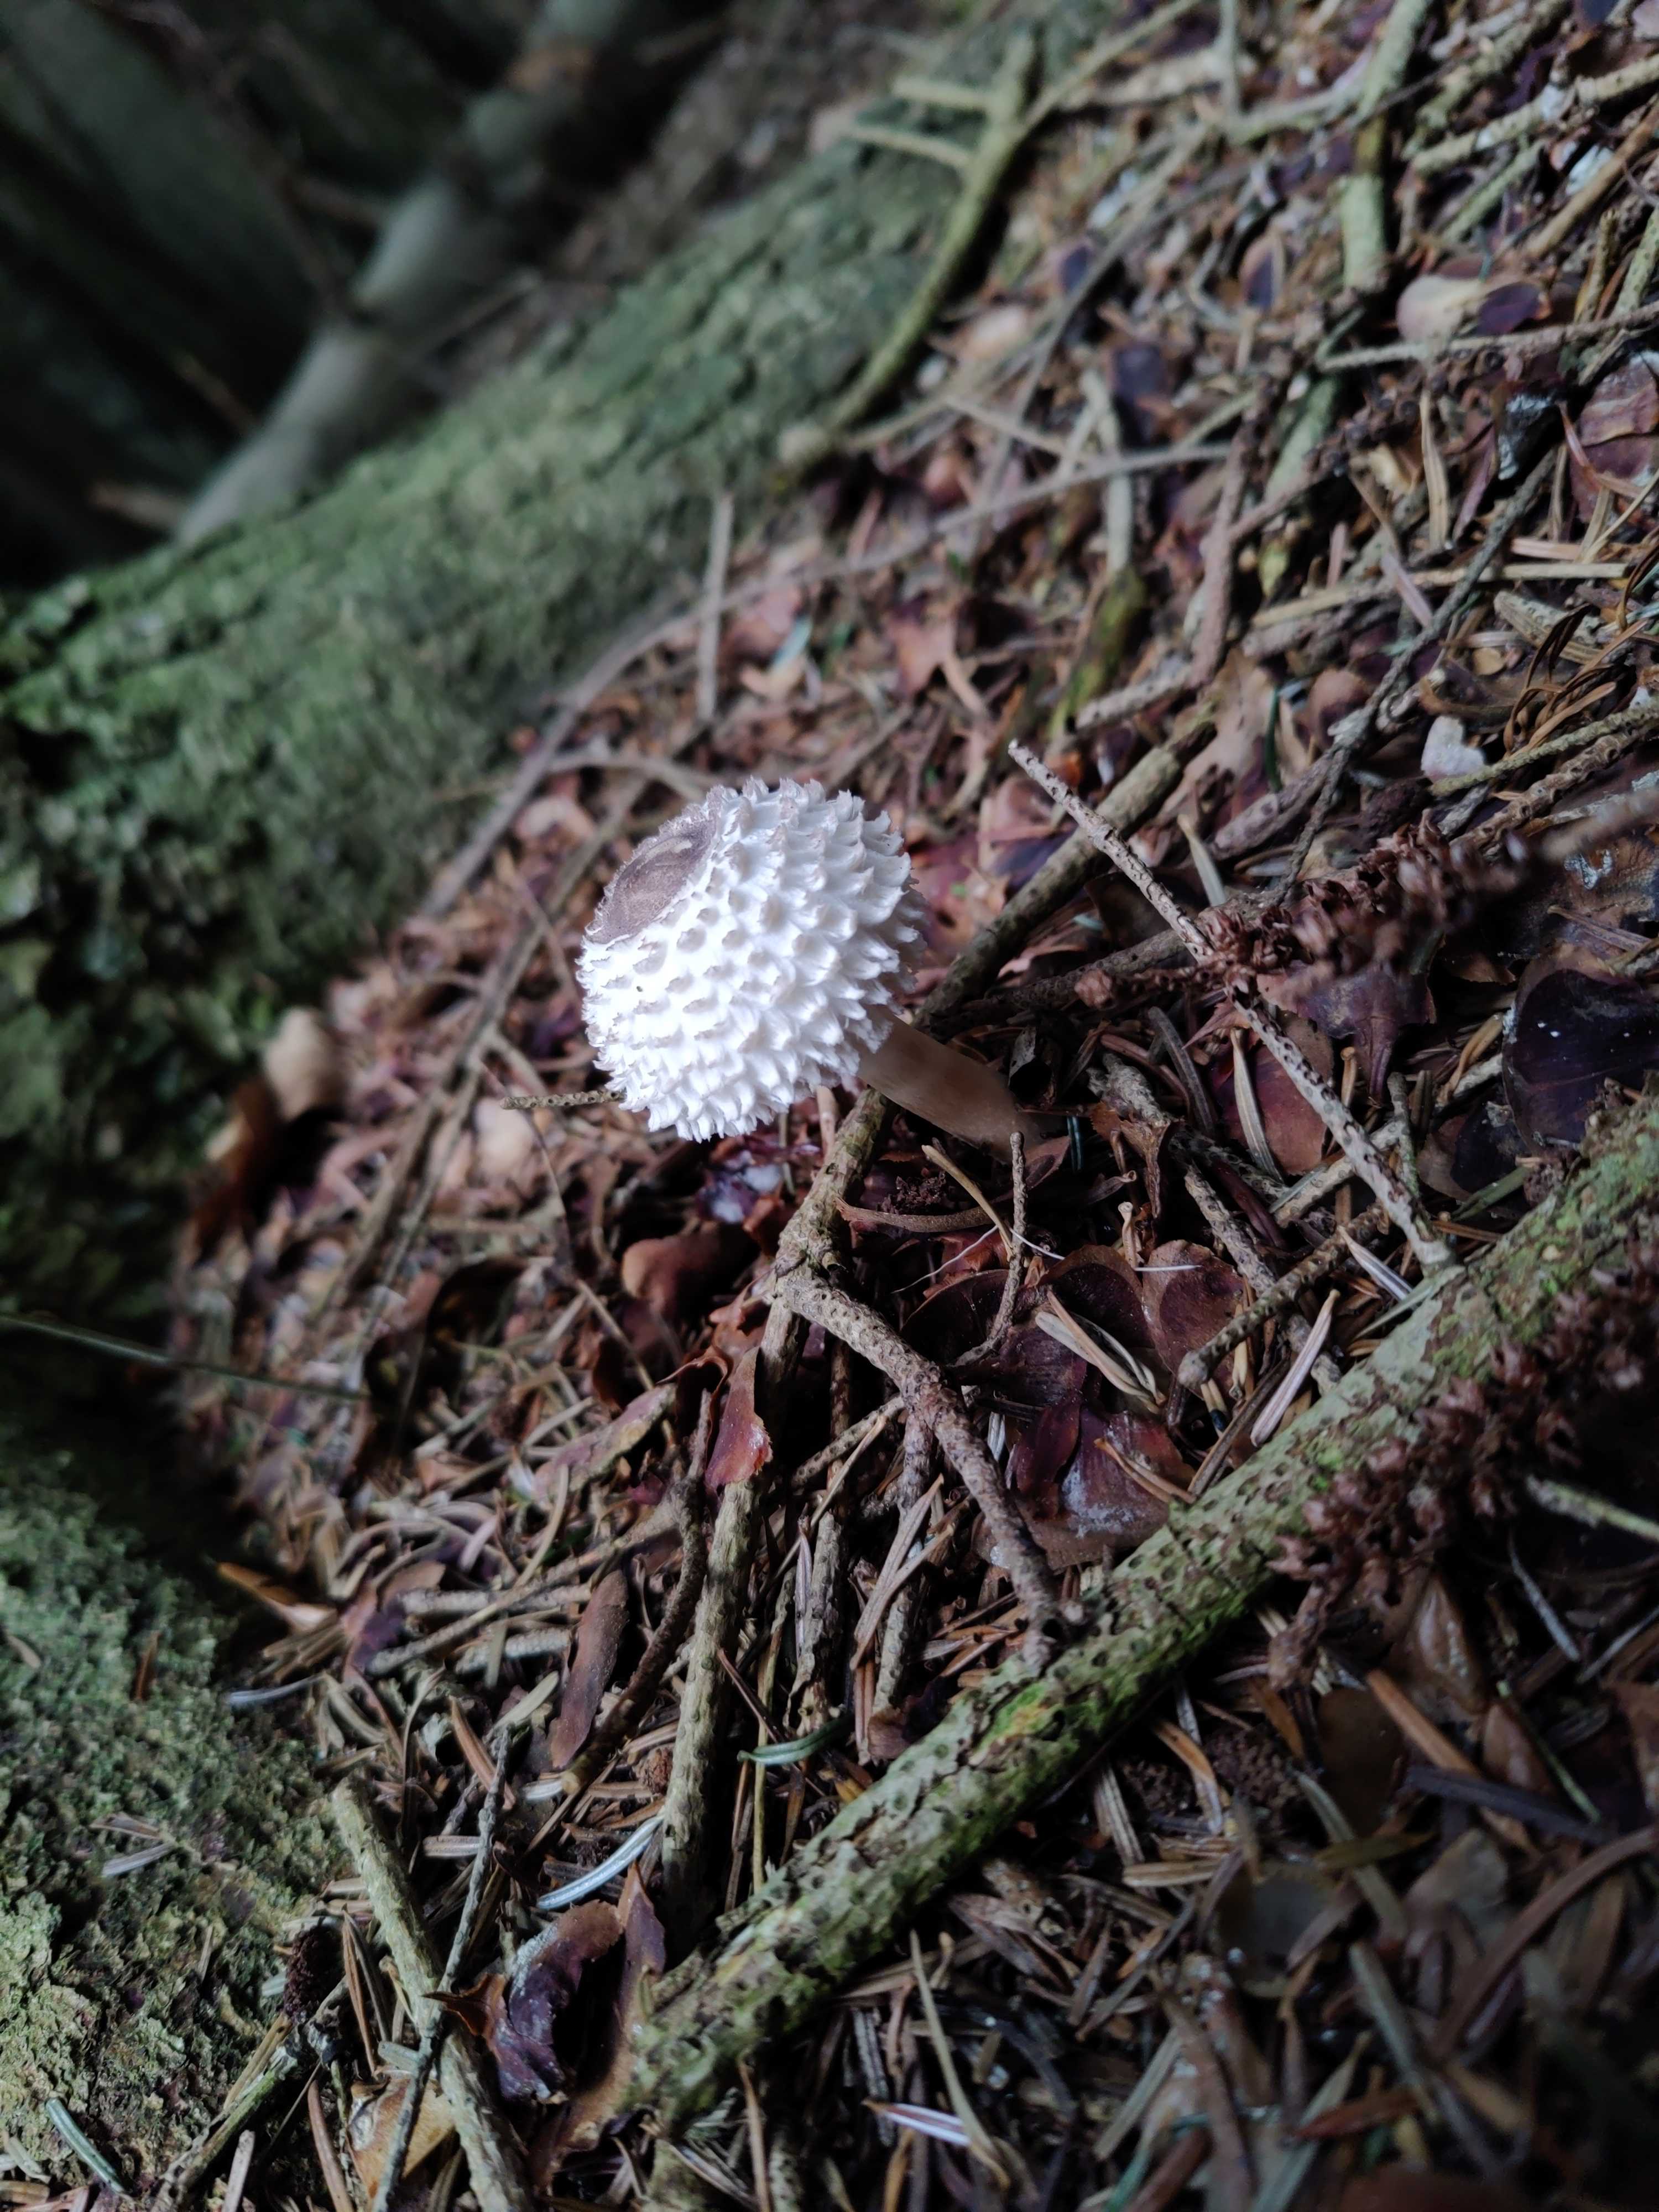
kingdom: Fungi
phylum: Basidiomycota
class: Agaricomycetes
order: Agaricales
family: Agaricaceae
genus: Leucoagaricus
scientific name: Leucoagaricus nympharum
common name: gran-silkehat
